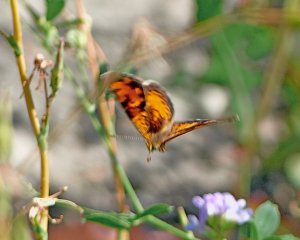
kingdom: Animalia
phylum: Arthropoda
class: Insecta
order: Lepidoptera
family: Nymphalidae
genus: Phyciodes
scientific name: Phyciodes tharos
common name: Northern Crescent
